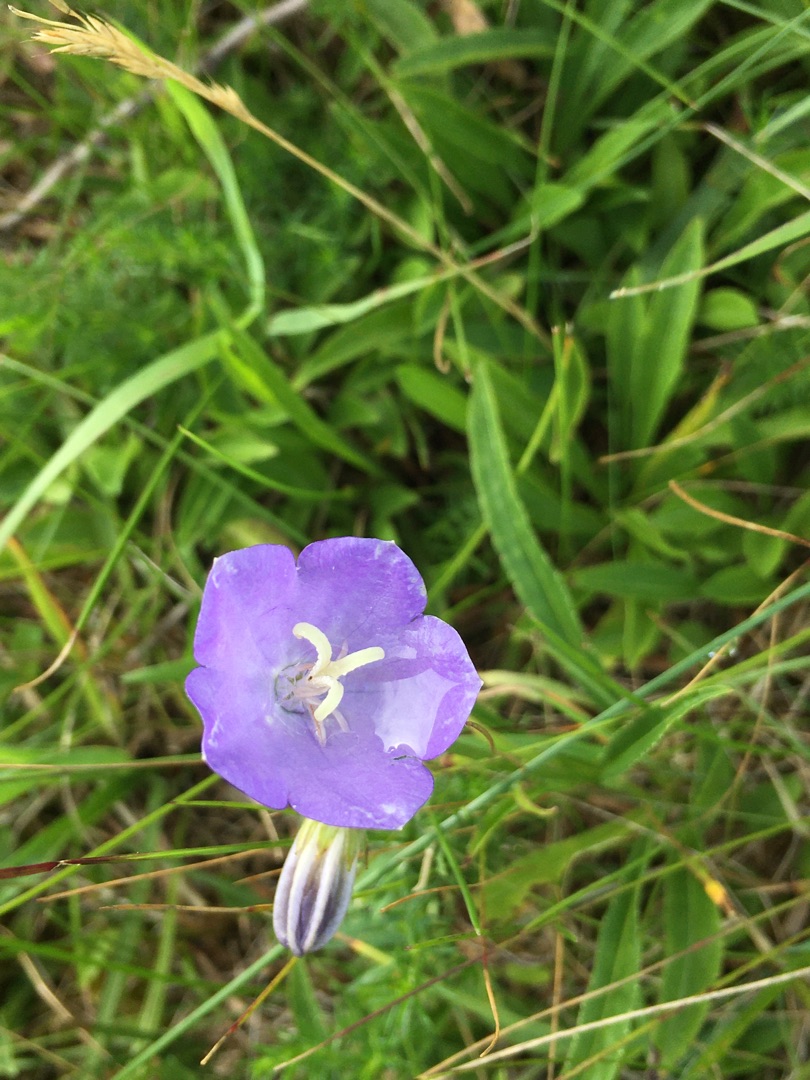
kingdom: Plantae
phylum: Tracheophyta
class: Magnoliopsida
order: Asterales
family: Campanulaceae
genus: Campanula
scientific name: Campanula persicifolia
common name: Smalbladet klokke
